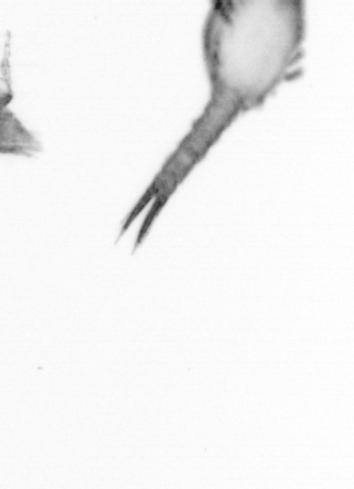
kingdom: Animalia
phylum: Arthropoda
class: Copepoda
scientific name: Copepoda
